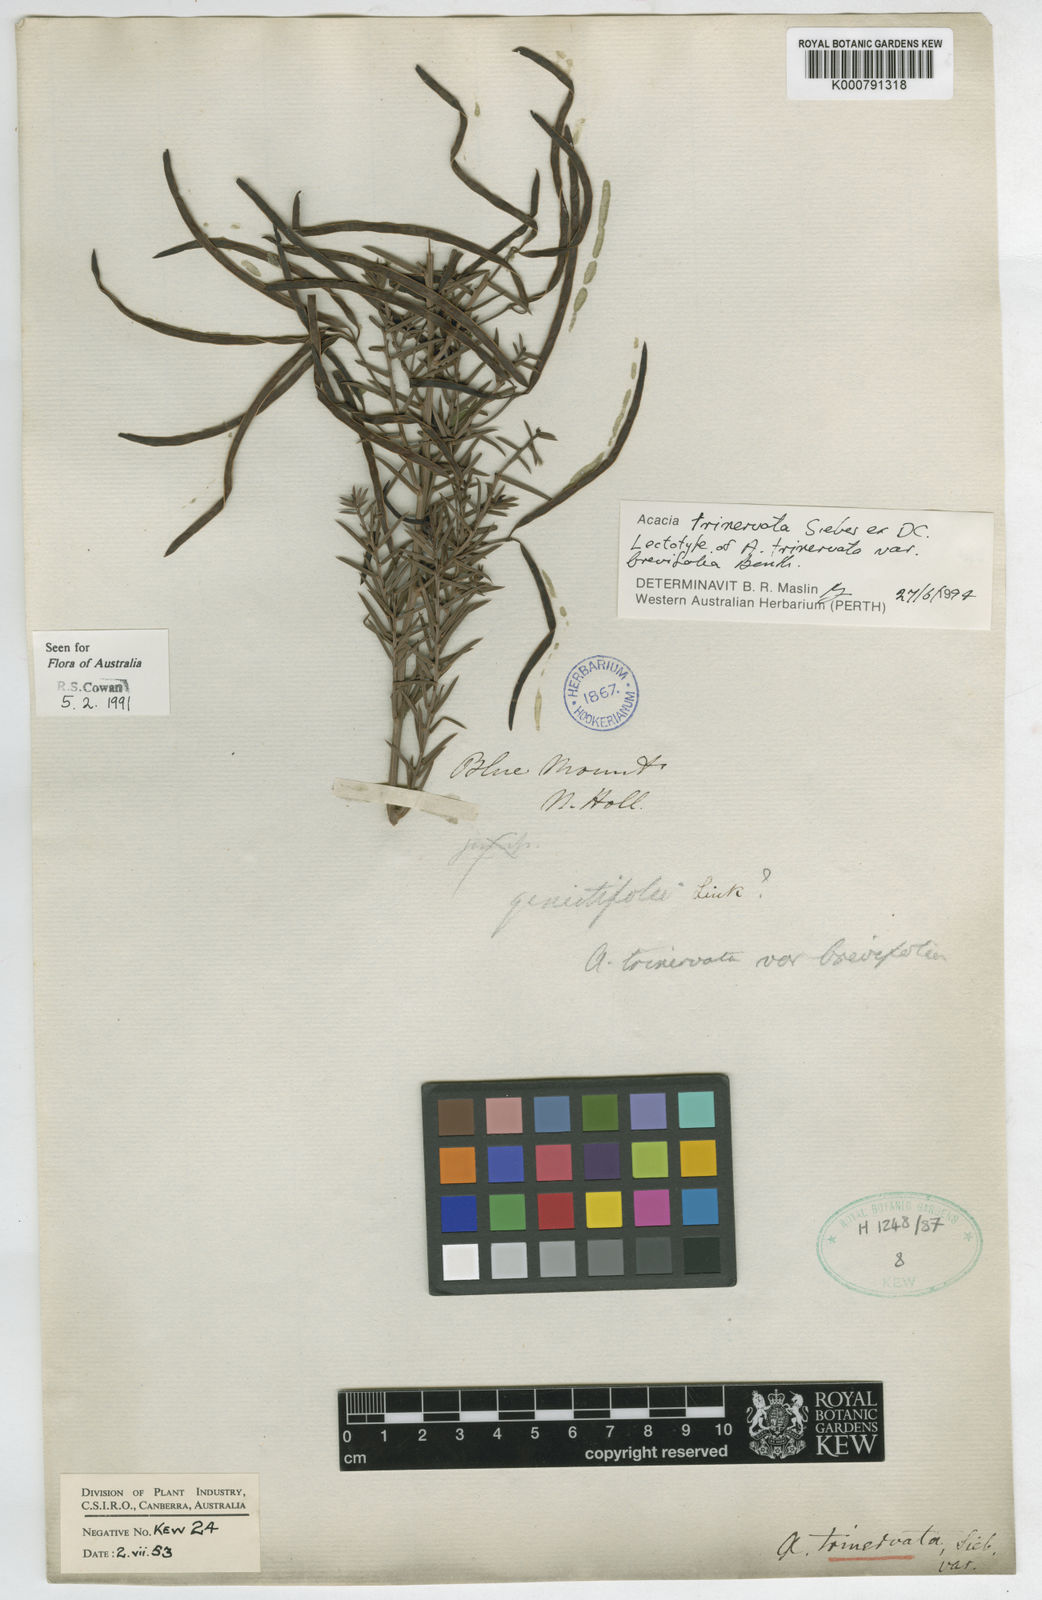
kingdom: Plantae
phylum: Tracheophyta
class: Magnoliopsida
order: Fabales
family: Fabaceae
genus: Acacia
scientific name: Acacia trinervata
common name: Three-nerve wattle
